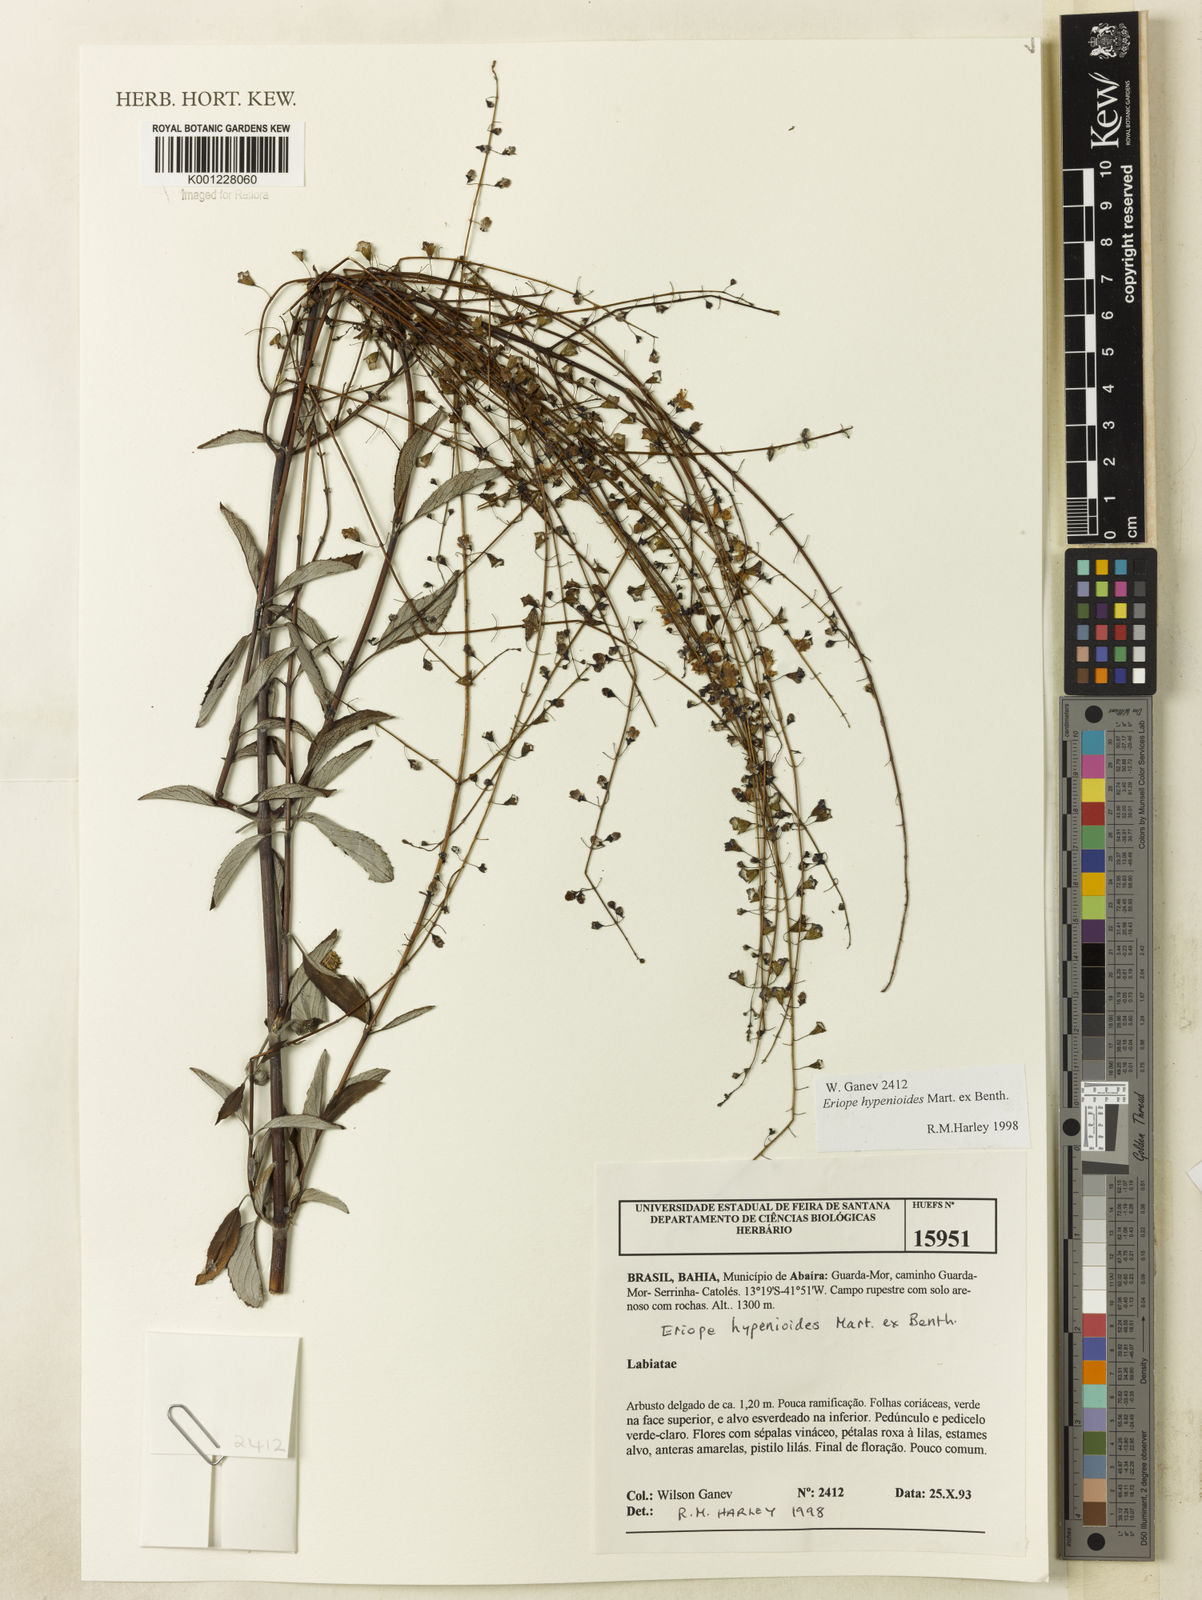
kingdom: Plantae
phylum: Tracheophyta
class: Magnoliopsida
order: Lamiales
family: Lamiaceae
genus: Eriope
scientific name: Eriope hypenioides
